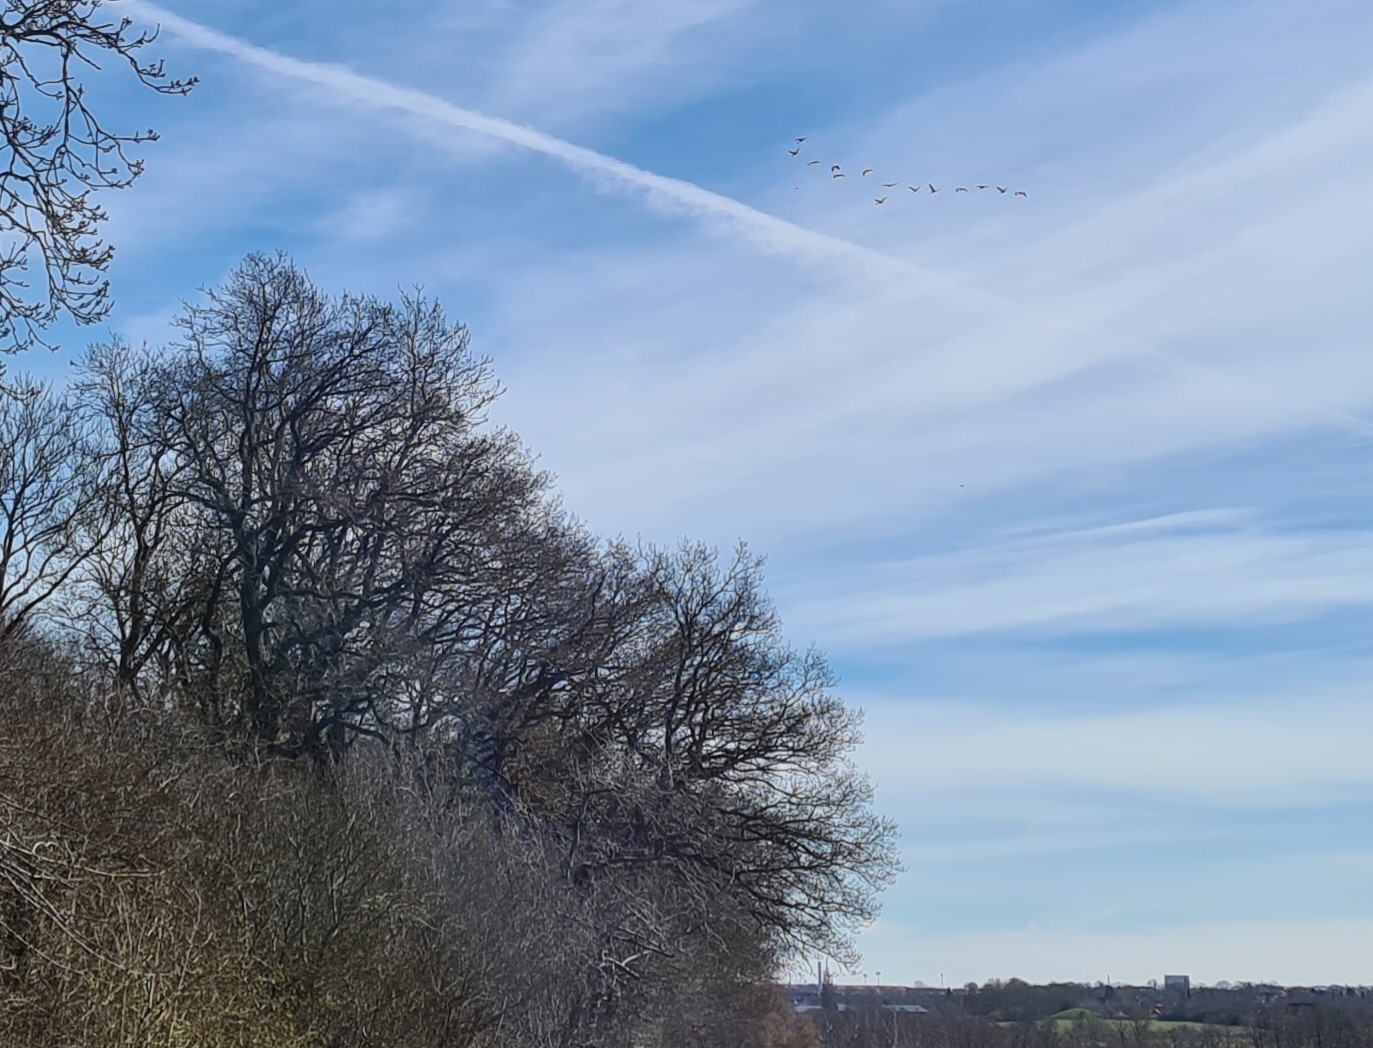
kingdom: Animalia
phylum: Chordata
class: Aves
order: Gruiformes
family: Gruidae
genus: Grus
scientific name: Grus grus
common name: Trane
